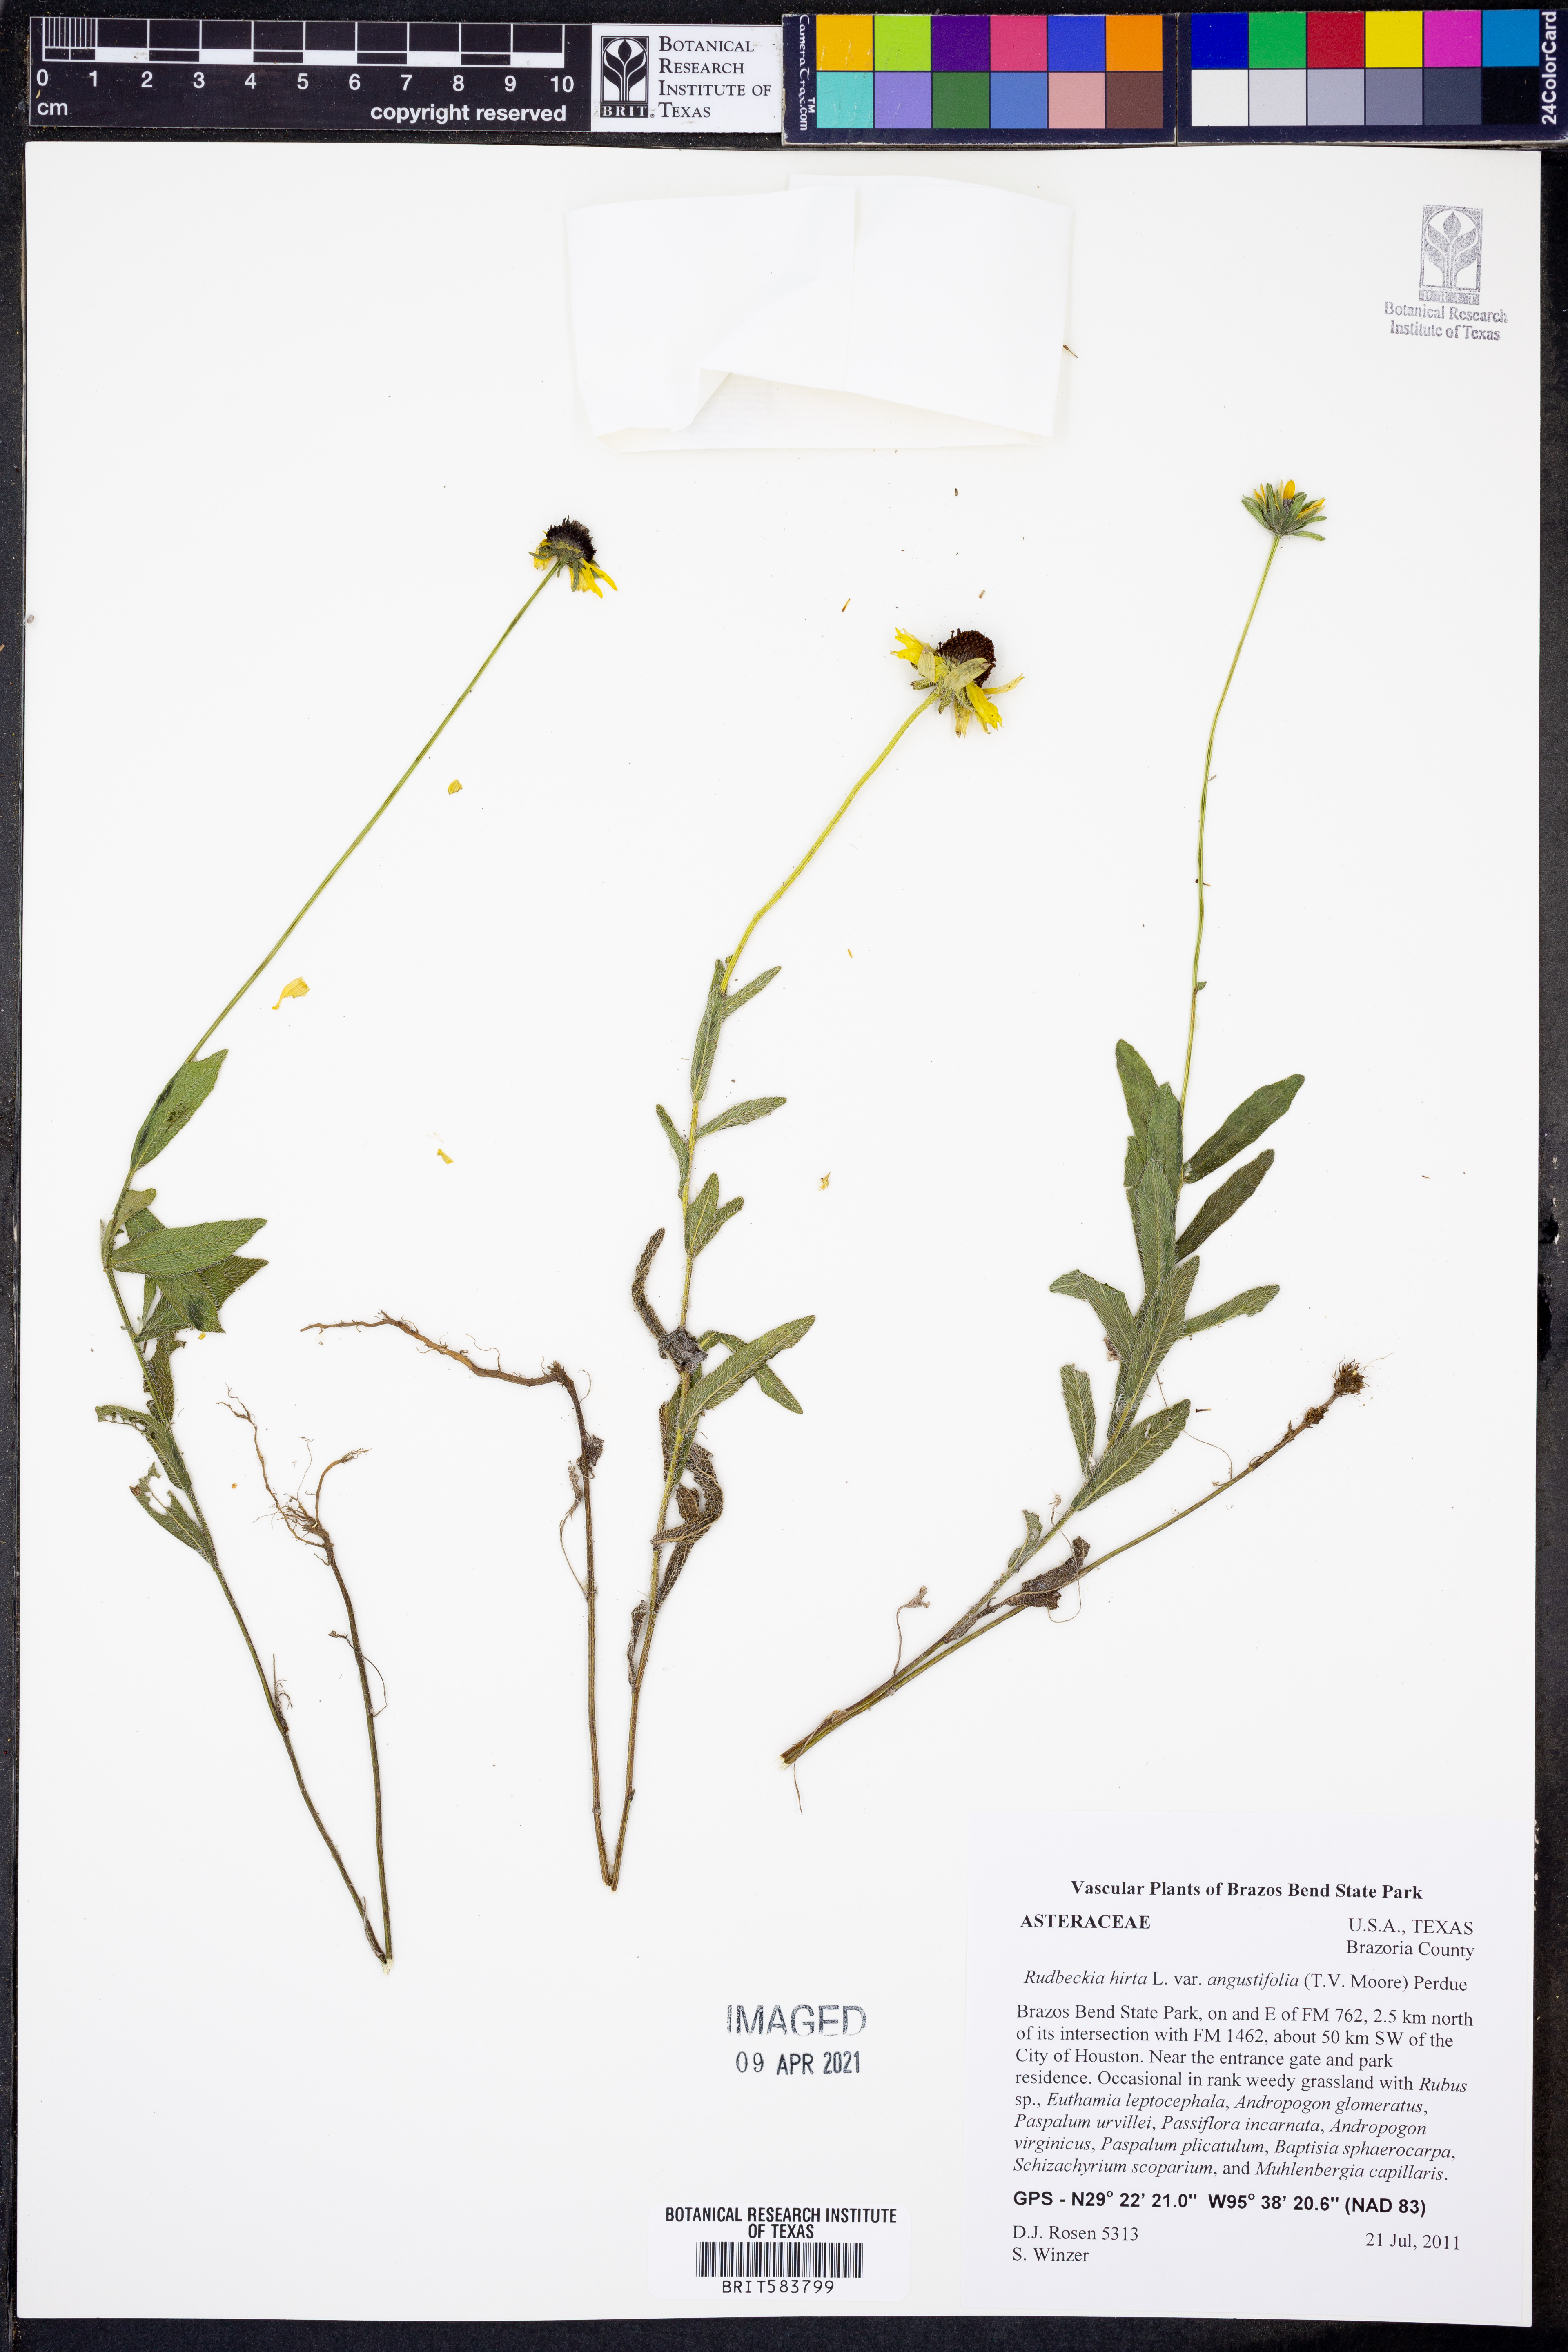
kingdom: Plantae
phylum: Tracheophyta
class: Magnoliopsida
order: Asterales
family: Asteraceae
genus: Rudbeckia
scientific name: Rudbeckia hirta
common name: Black-eyed-susan
